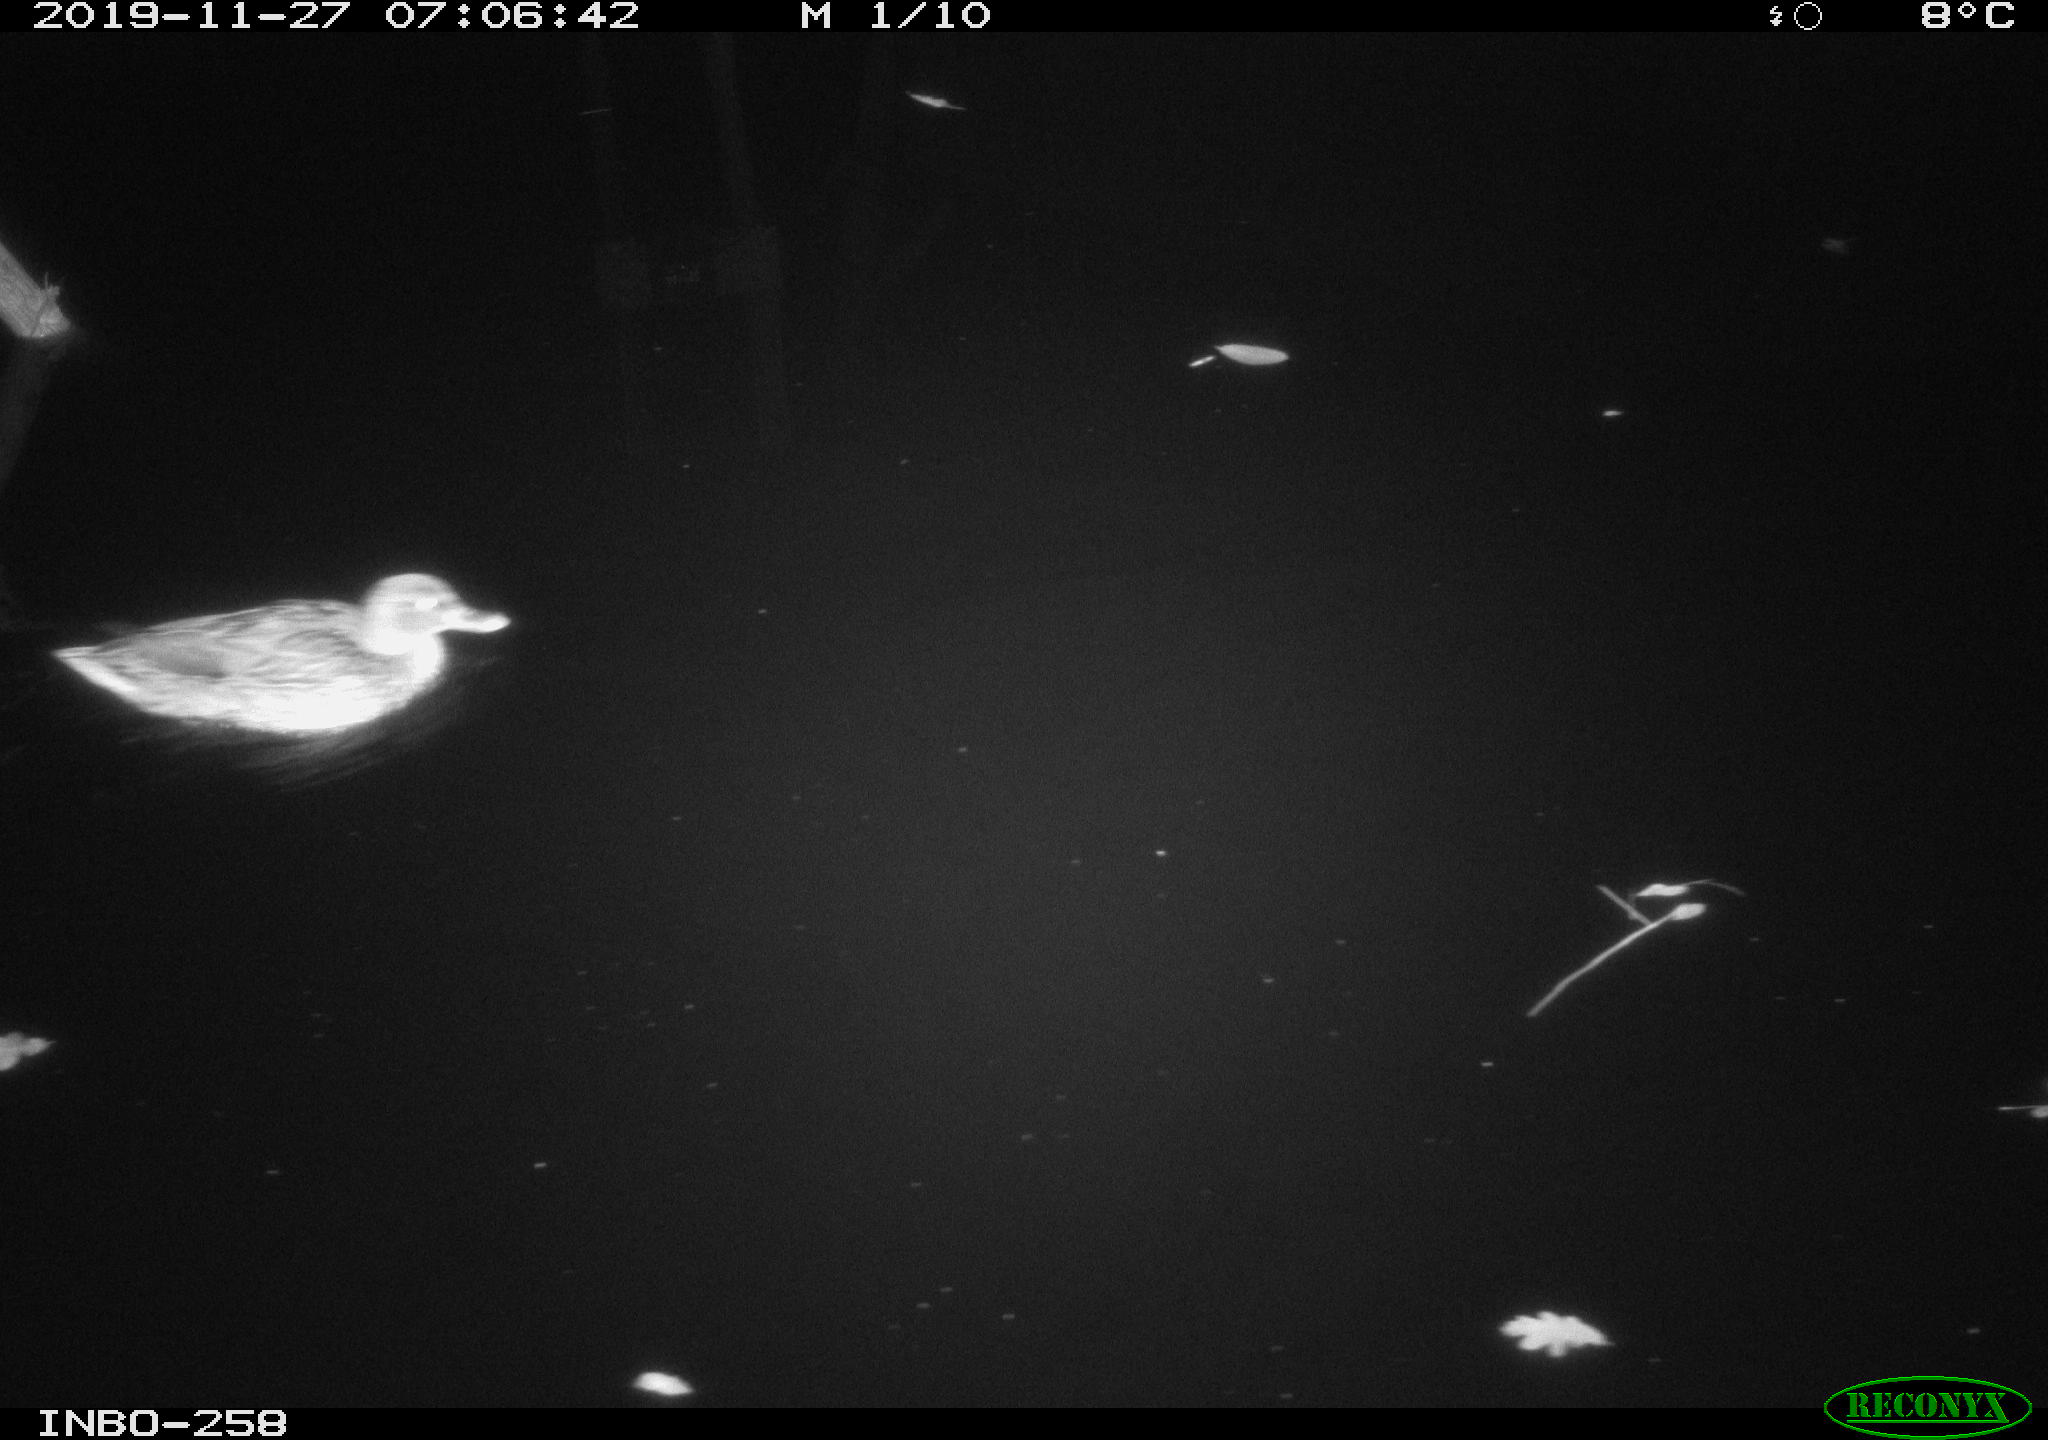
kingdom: Animalia
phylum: Chordata
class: Aves
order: Anseriformes
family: Anatidae
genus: Anas
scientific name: Anas platyrhynchos
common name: Mallard
